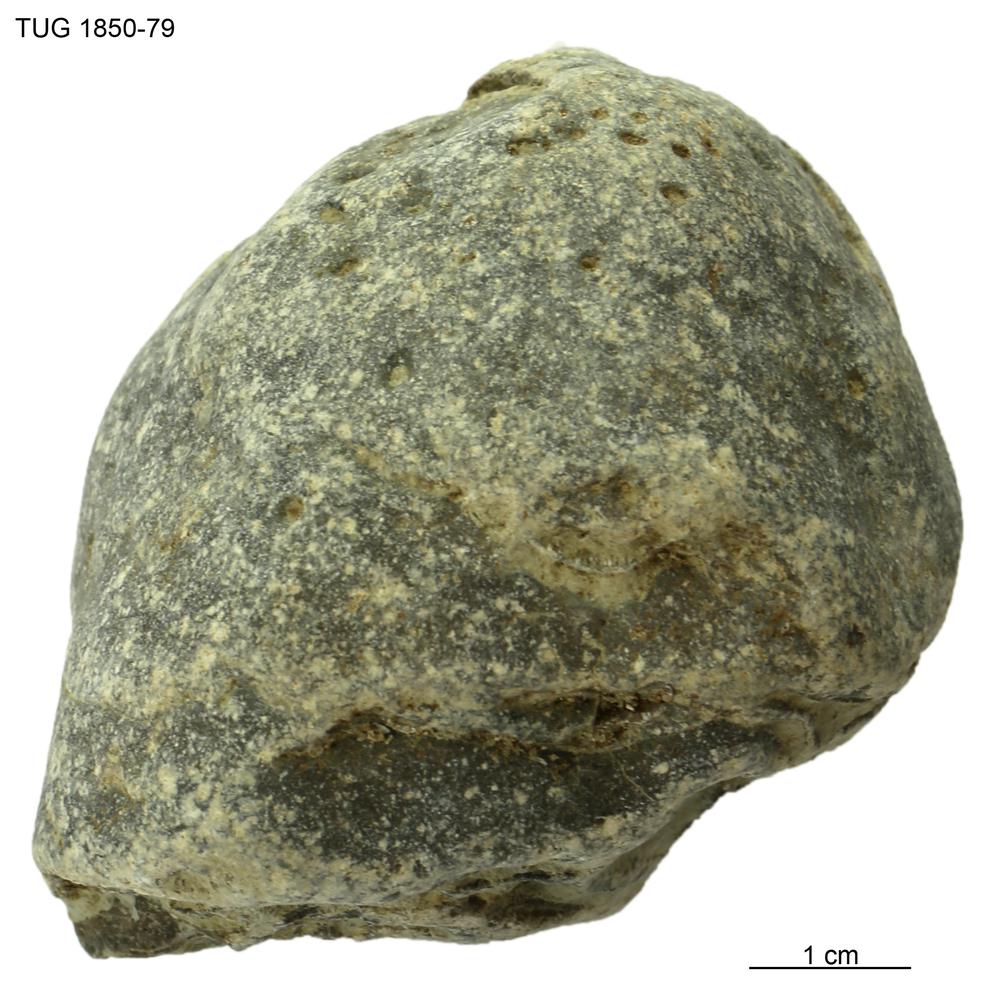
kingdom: Animalia
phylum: Porifera
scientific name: Porifera
